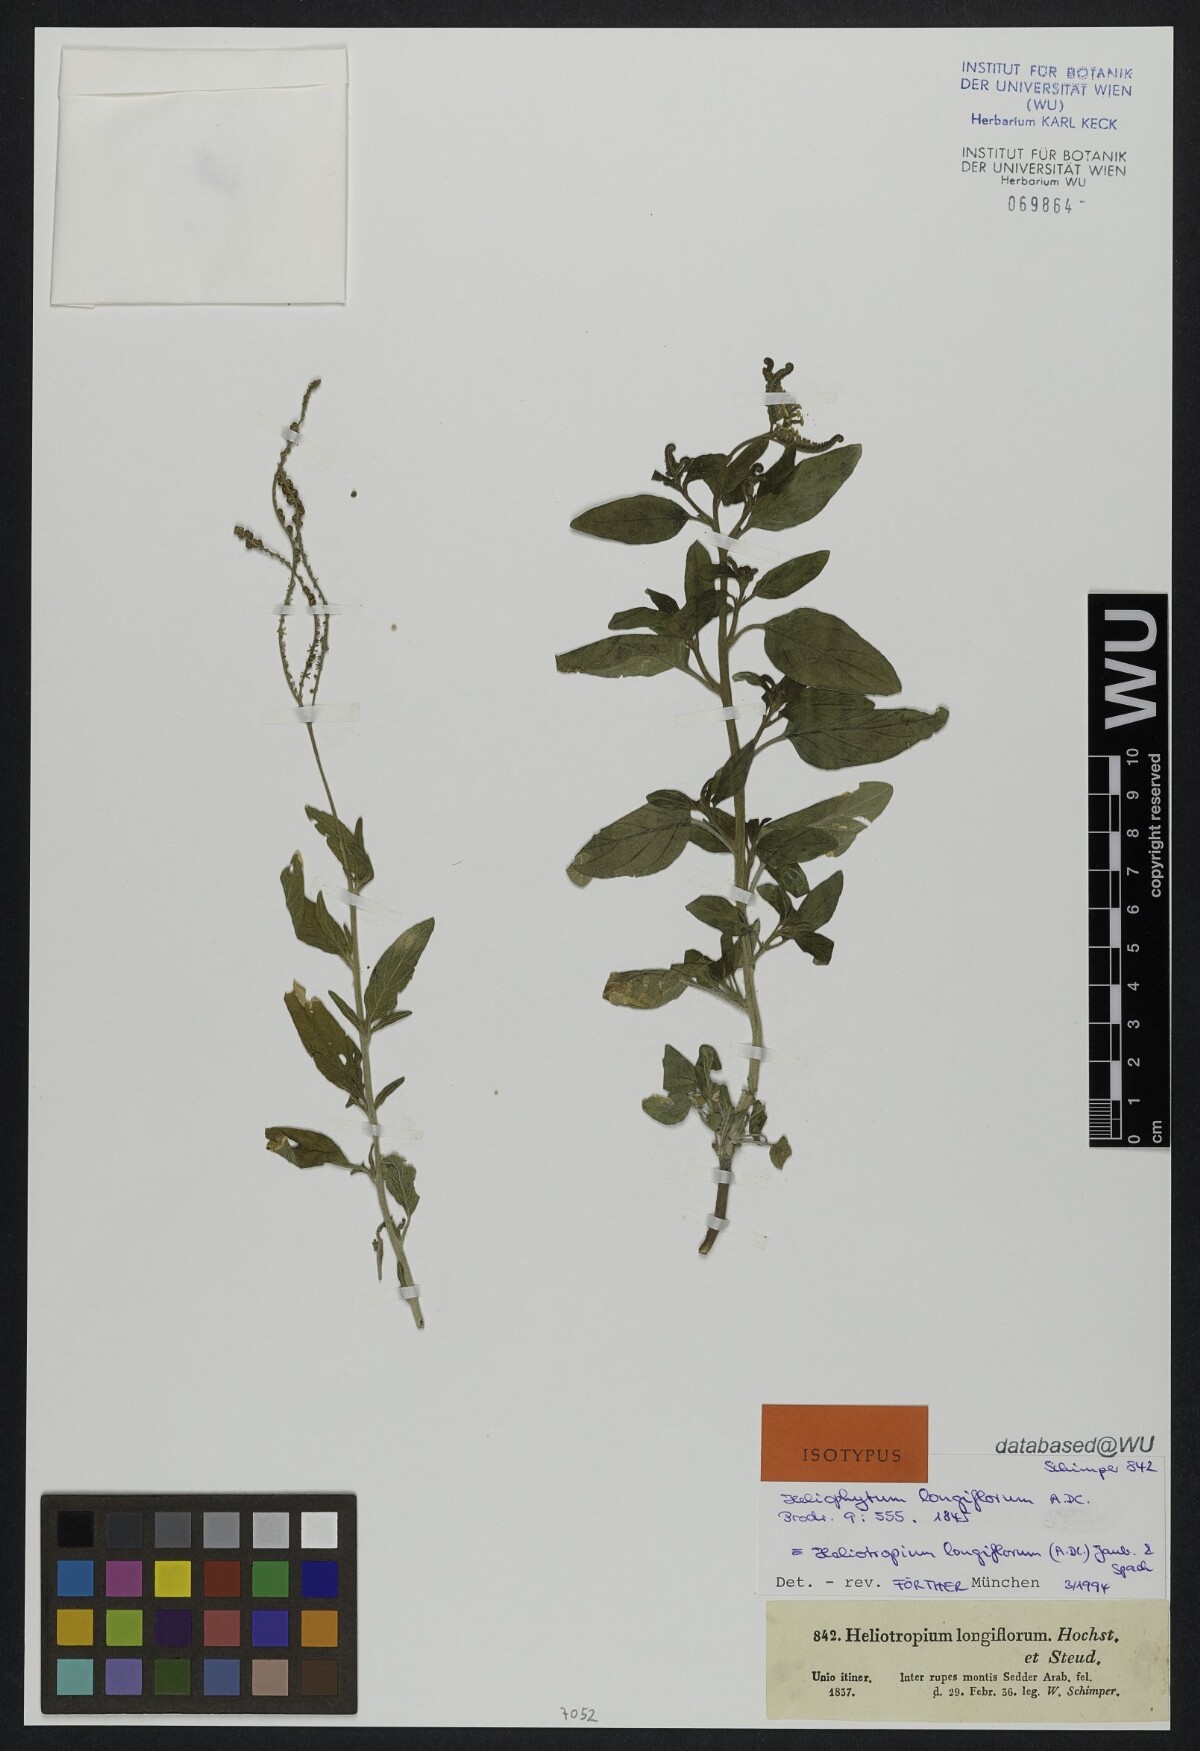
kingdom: Plantae
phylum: Tracheophyta
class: Magnoliopsida
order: Boraginales
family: Heliotropiaceae
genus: Heliotropium
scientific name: Heliotropium longiflorum
